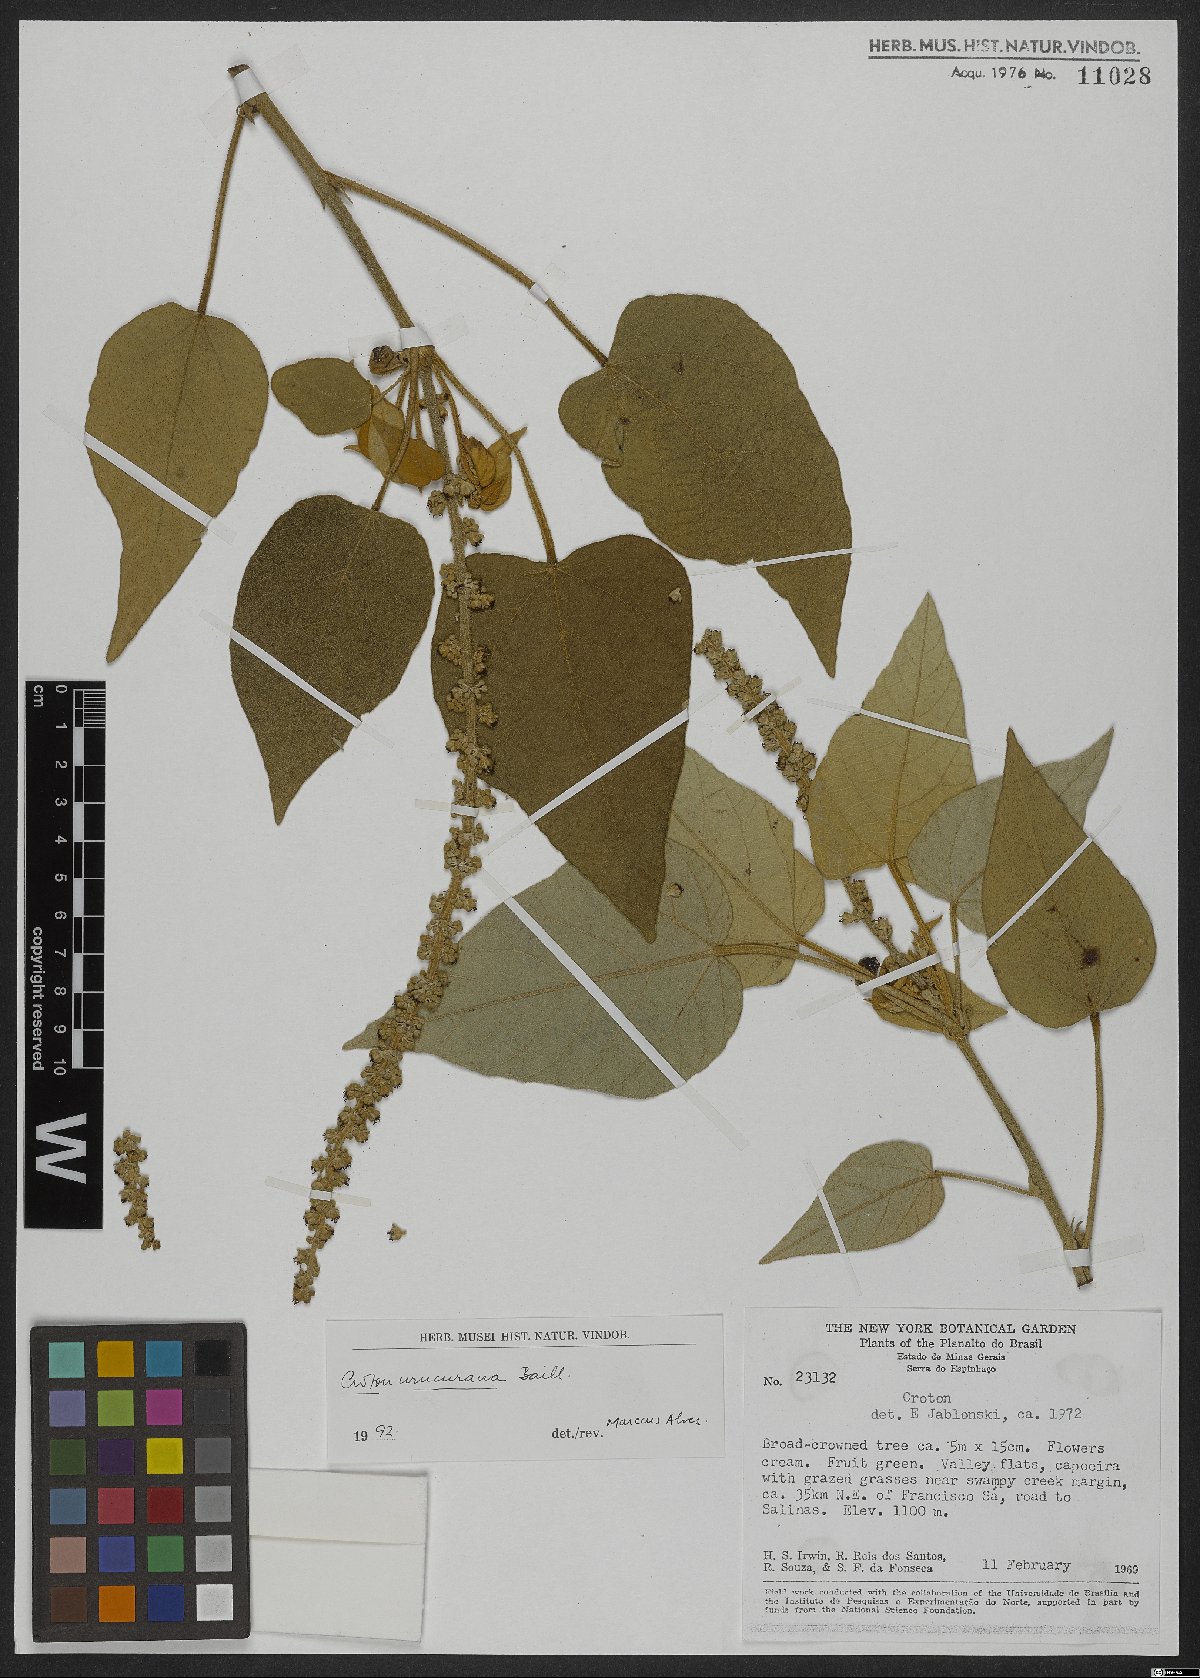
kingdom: Plantae
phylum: Tracheophyta
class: Magnoliopsida
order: Malpighiales
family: Euphorbiaceae
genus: Croton
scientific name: Croton urucurana
